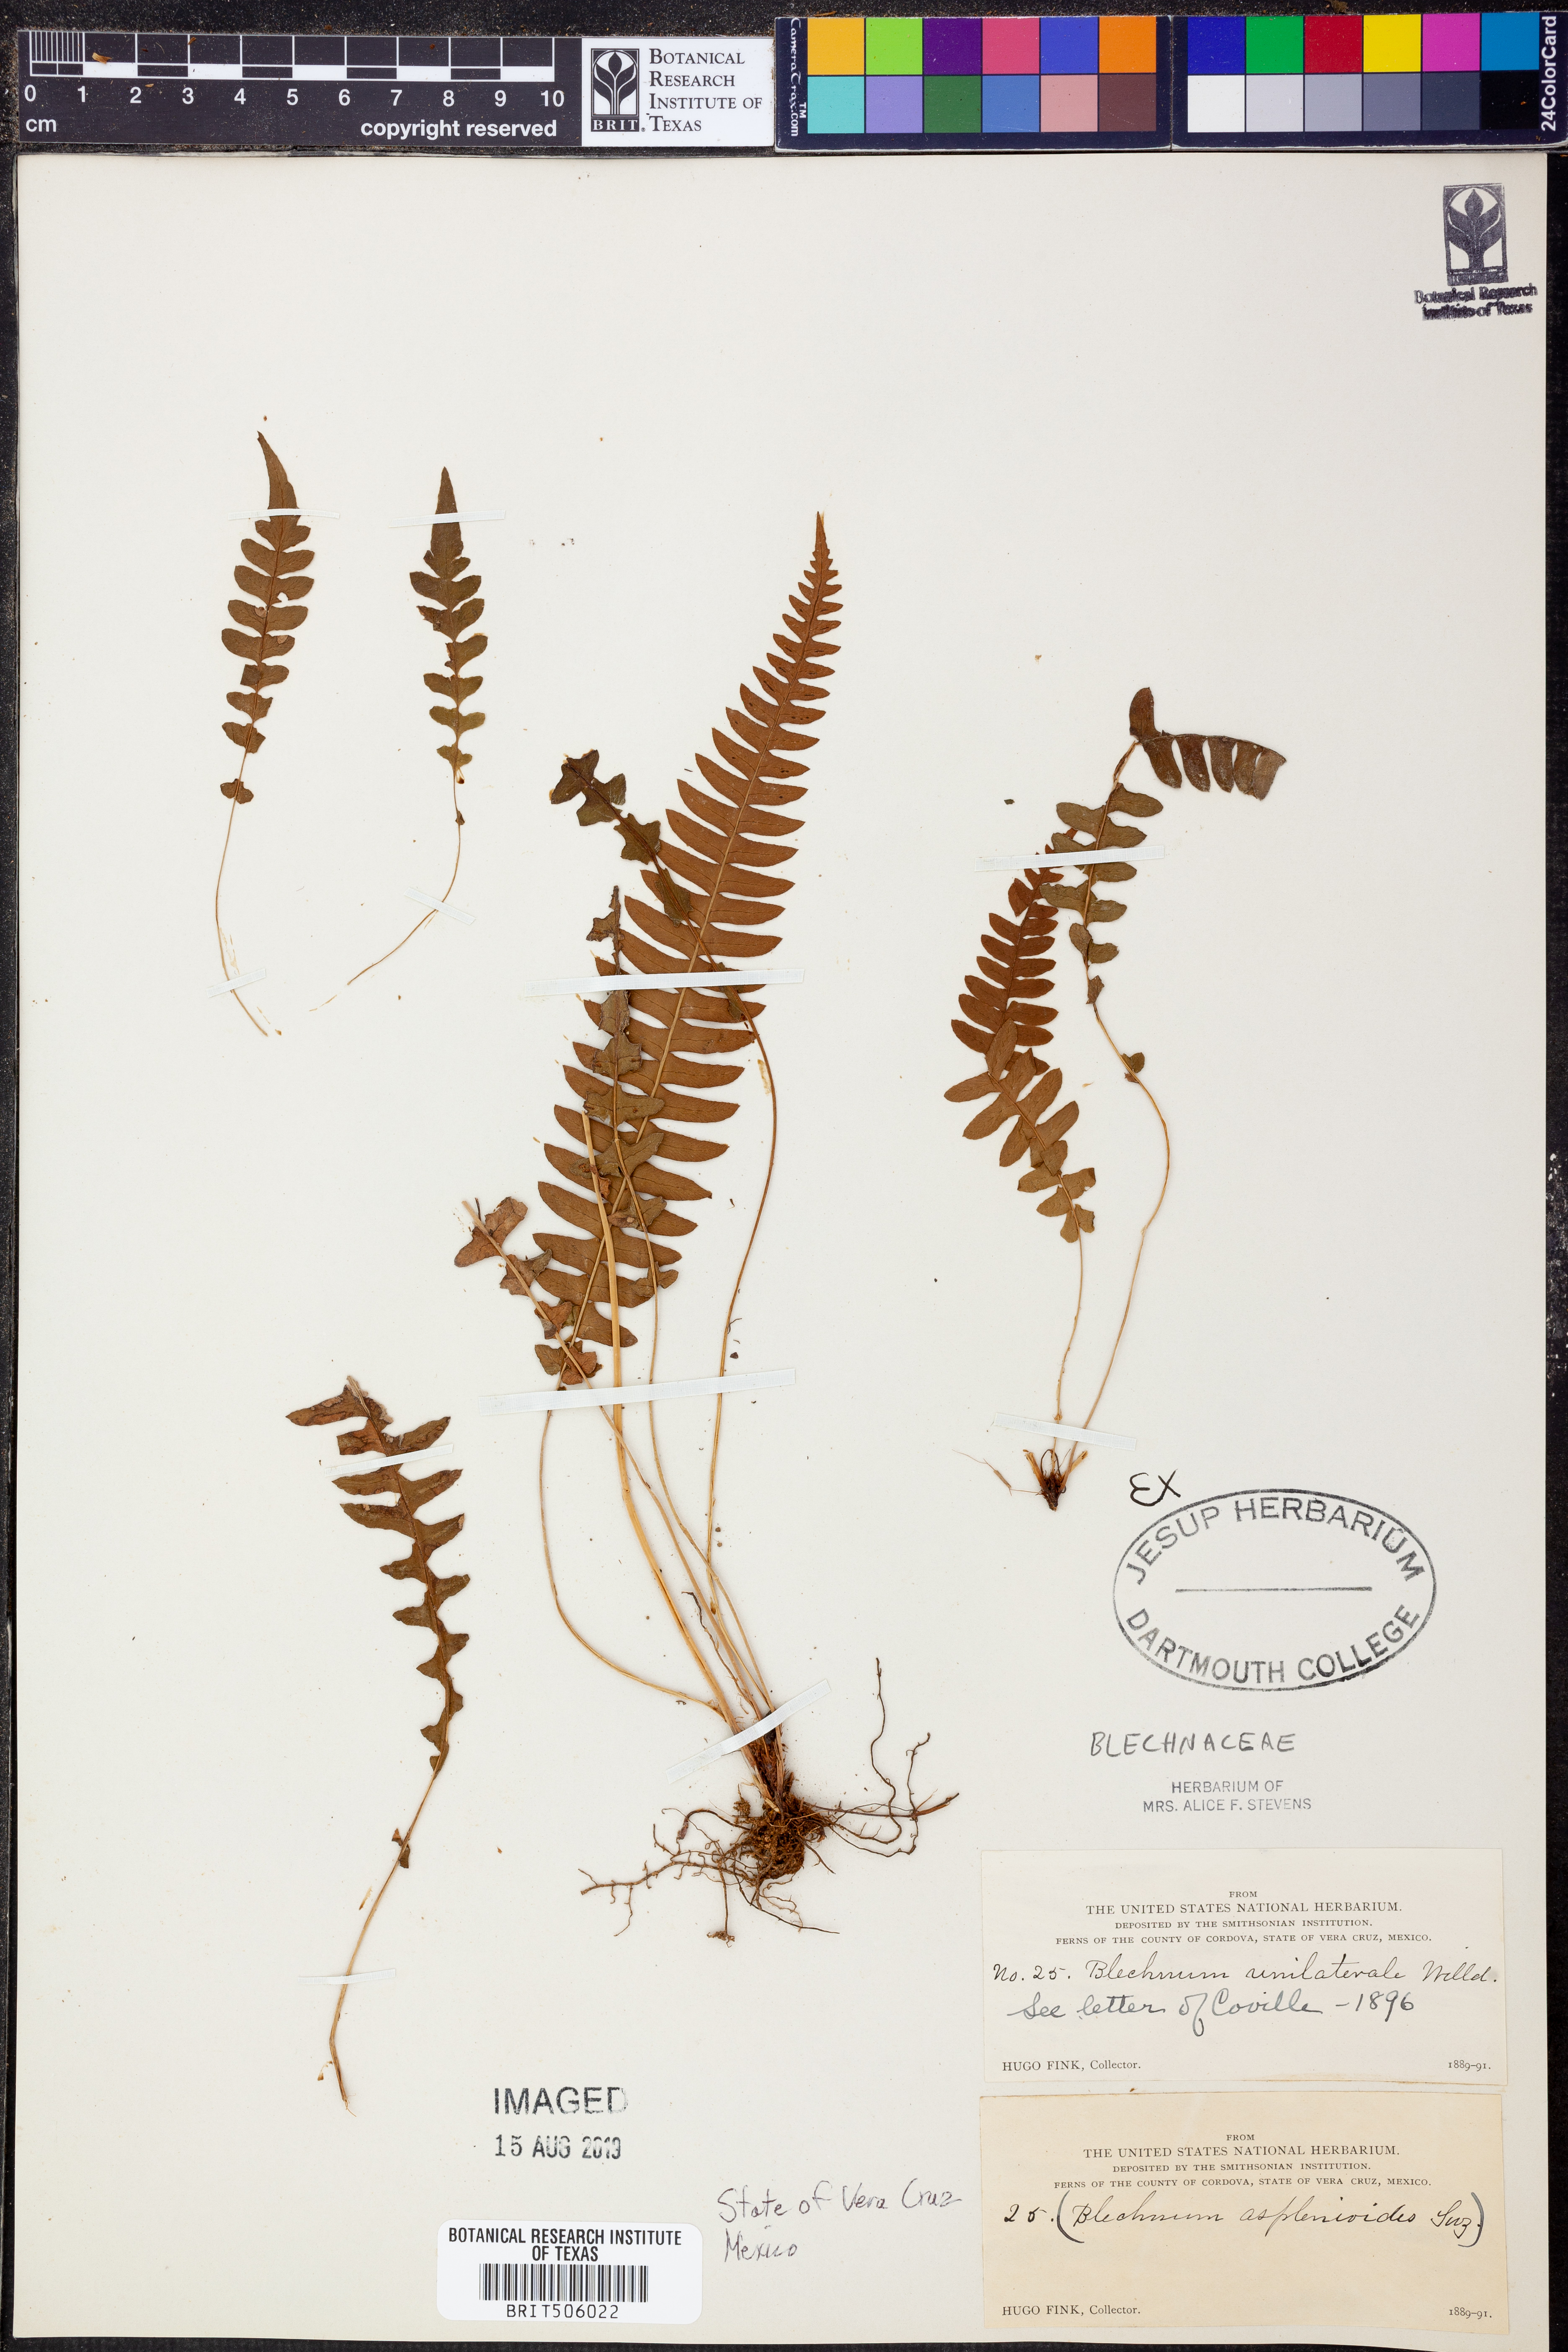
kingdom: Plantae
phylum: Tracheophyta
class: Polypodiopsida
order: Polypodiales
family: Blechnaceae
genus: Blechnum
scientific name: Blechnum polypodioides
